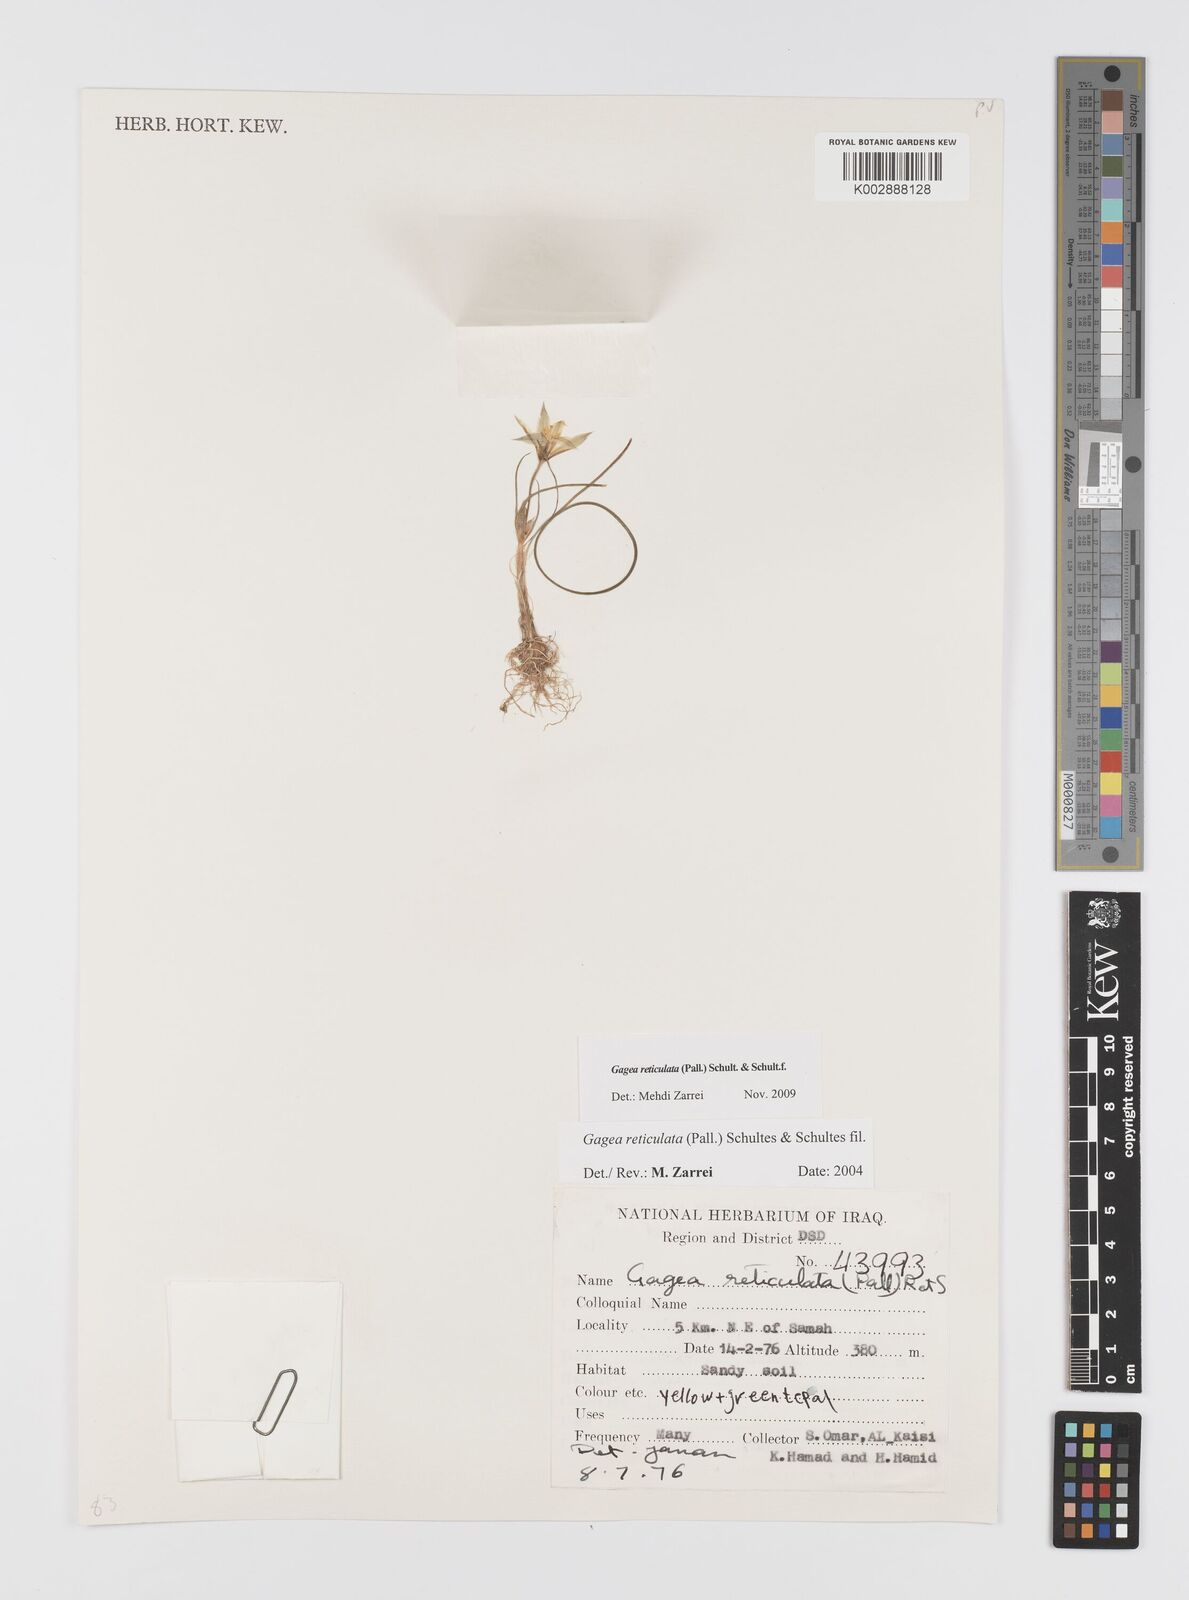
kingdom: Plantae
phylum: Tracheophyta
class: Liliopsida
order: Liliales
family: Liliaceae
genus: Gagea
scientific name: Gagea reticulata
